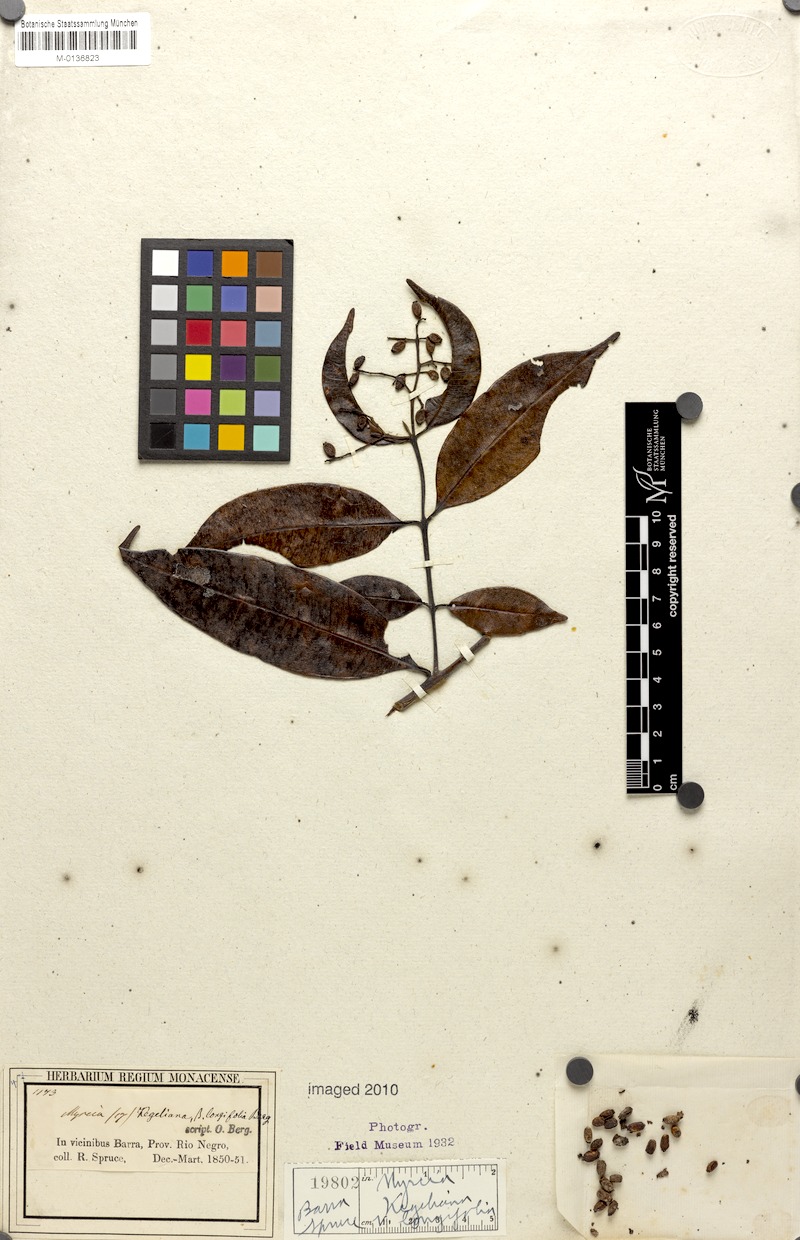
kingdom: Plantae
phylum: Tracheophyta
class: Magnoliopsida
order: Myrtales
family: Myrtaceae
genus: Myrcia
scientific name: Myrcia splendens
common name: Surinam cherry
